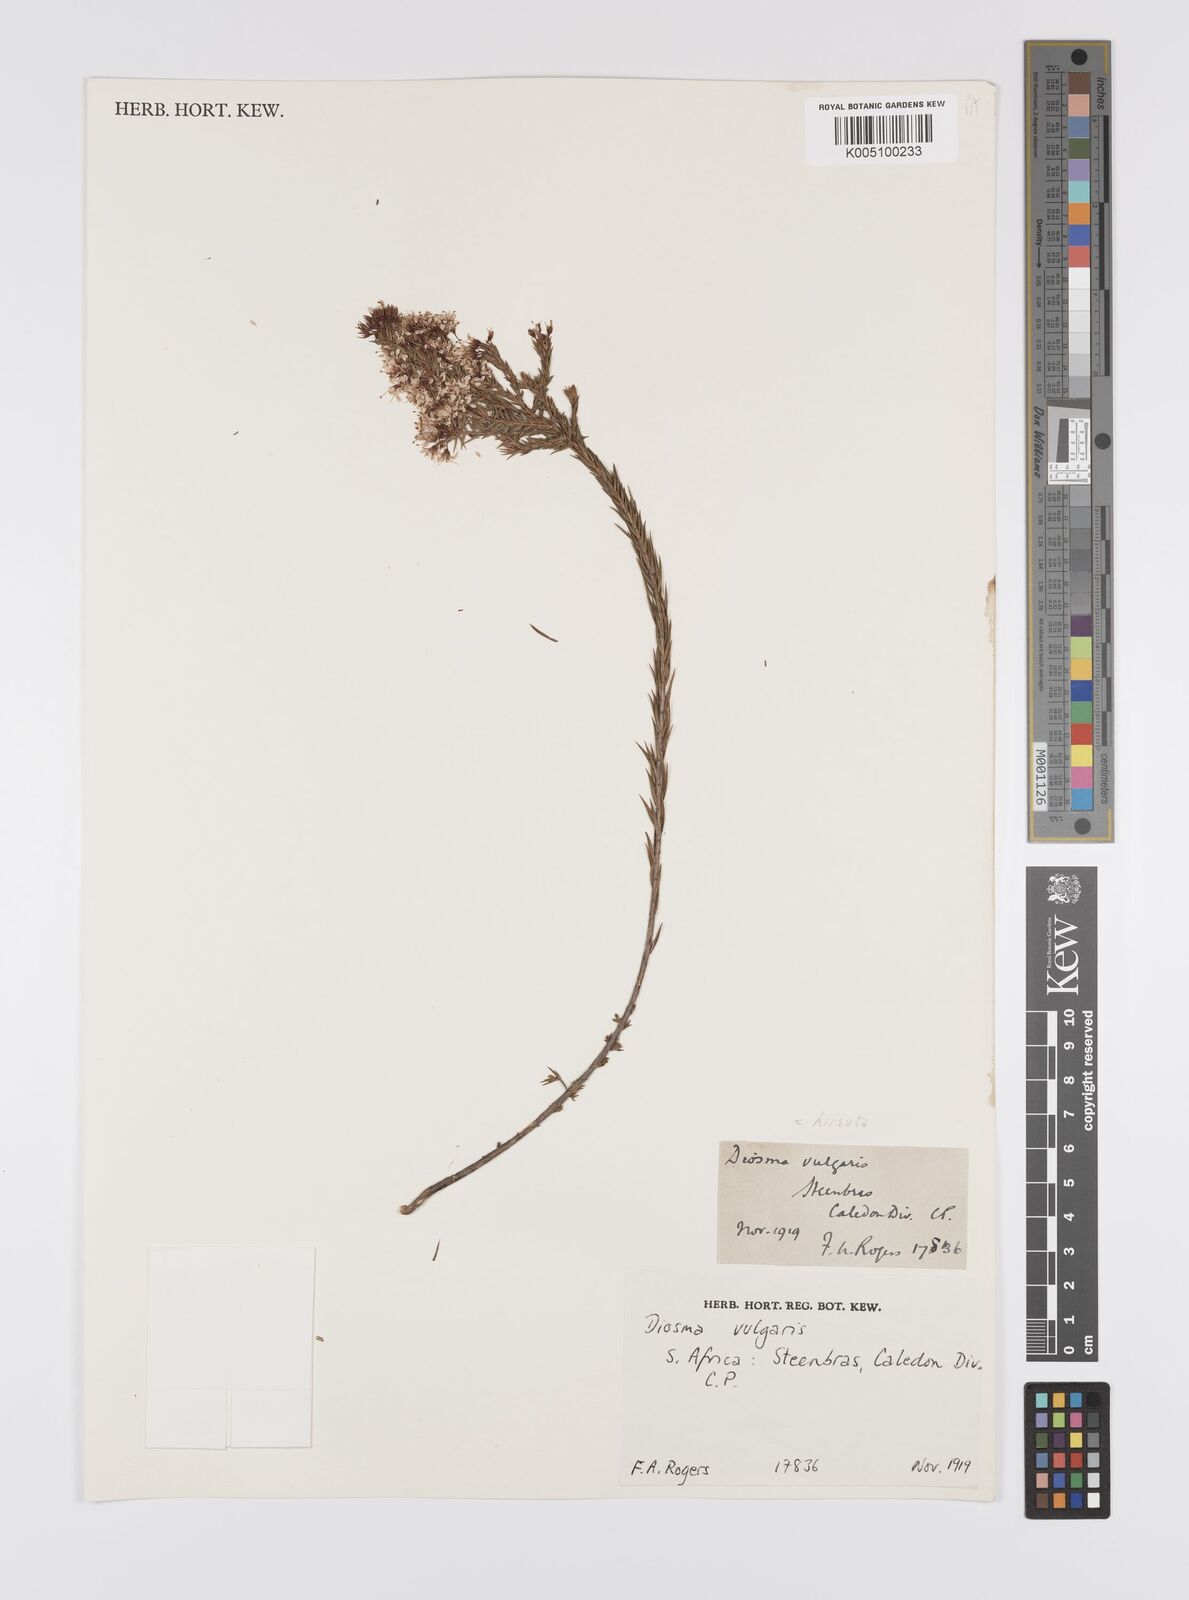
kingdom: Plantae
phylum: Tracheophyta
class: Magnoliopsida
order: Sapindales
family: Rutaceae
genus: Diosma
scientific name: Diosma hirsuta
